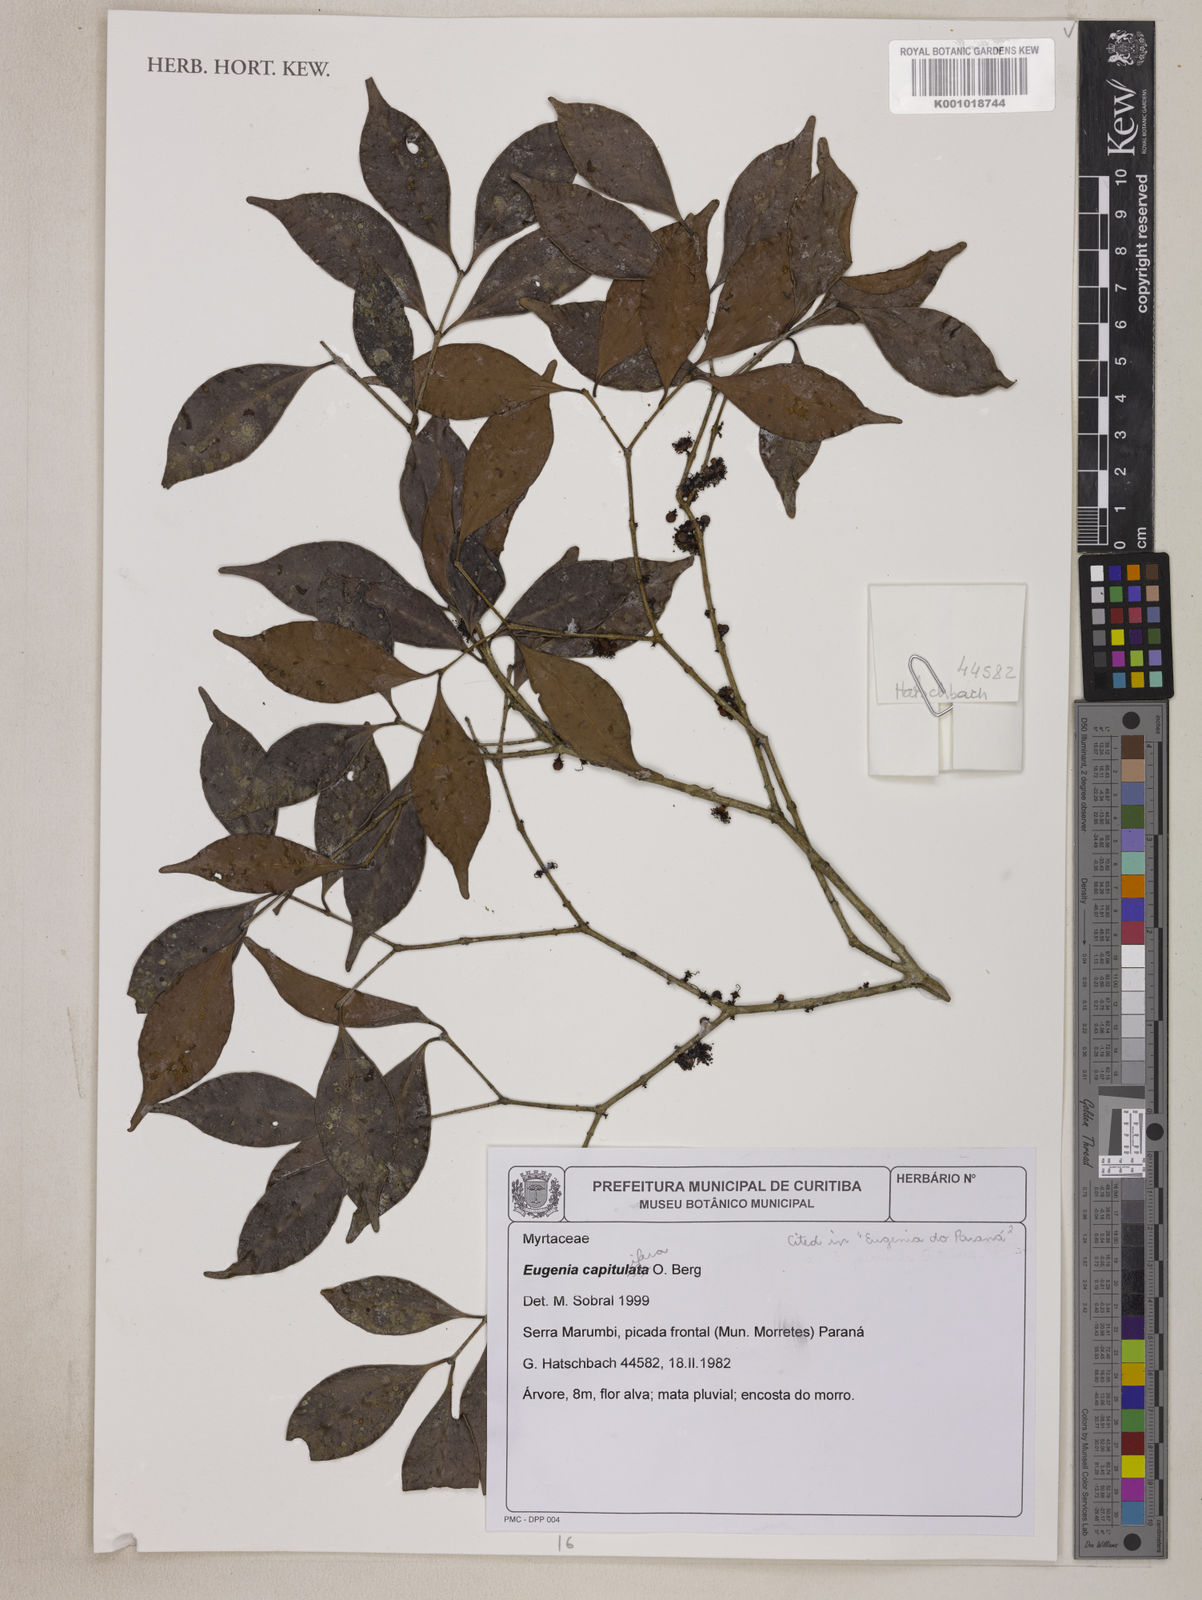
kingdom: Plantae
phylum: Tracheophyta
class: Magnoliopsida
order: Myrtales
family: Myrtaceae
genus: Eugenia
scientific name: Eugenia
